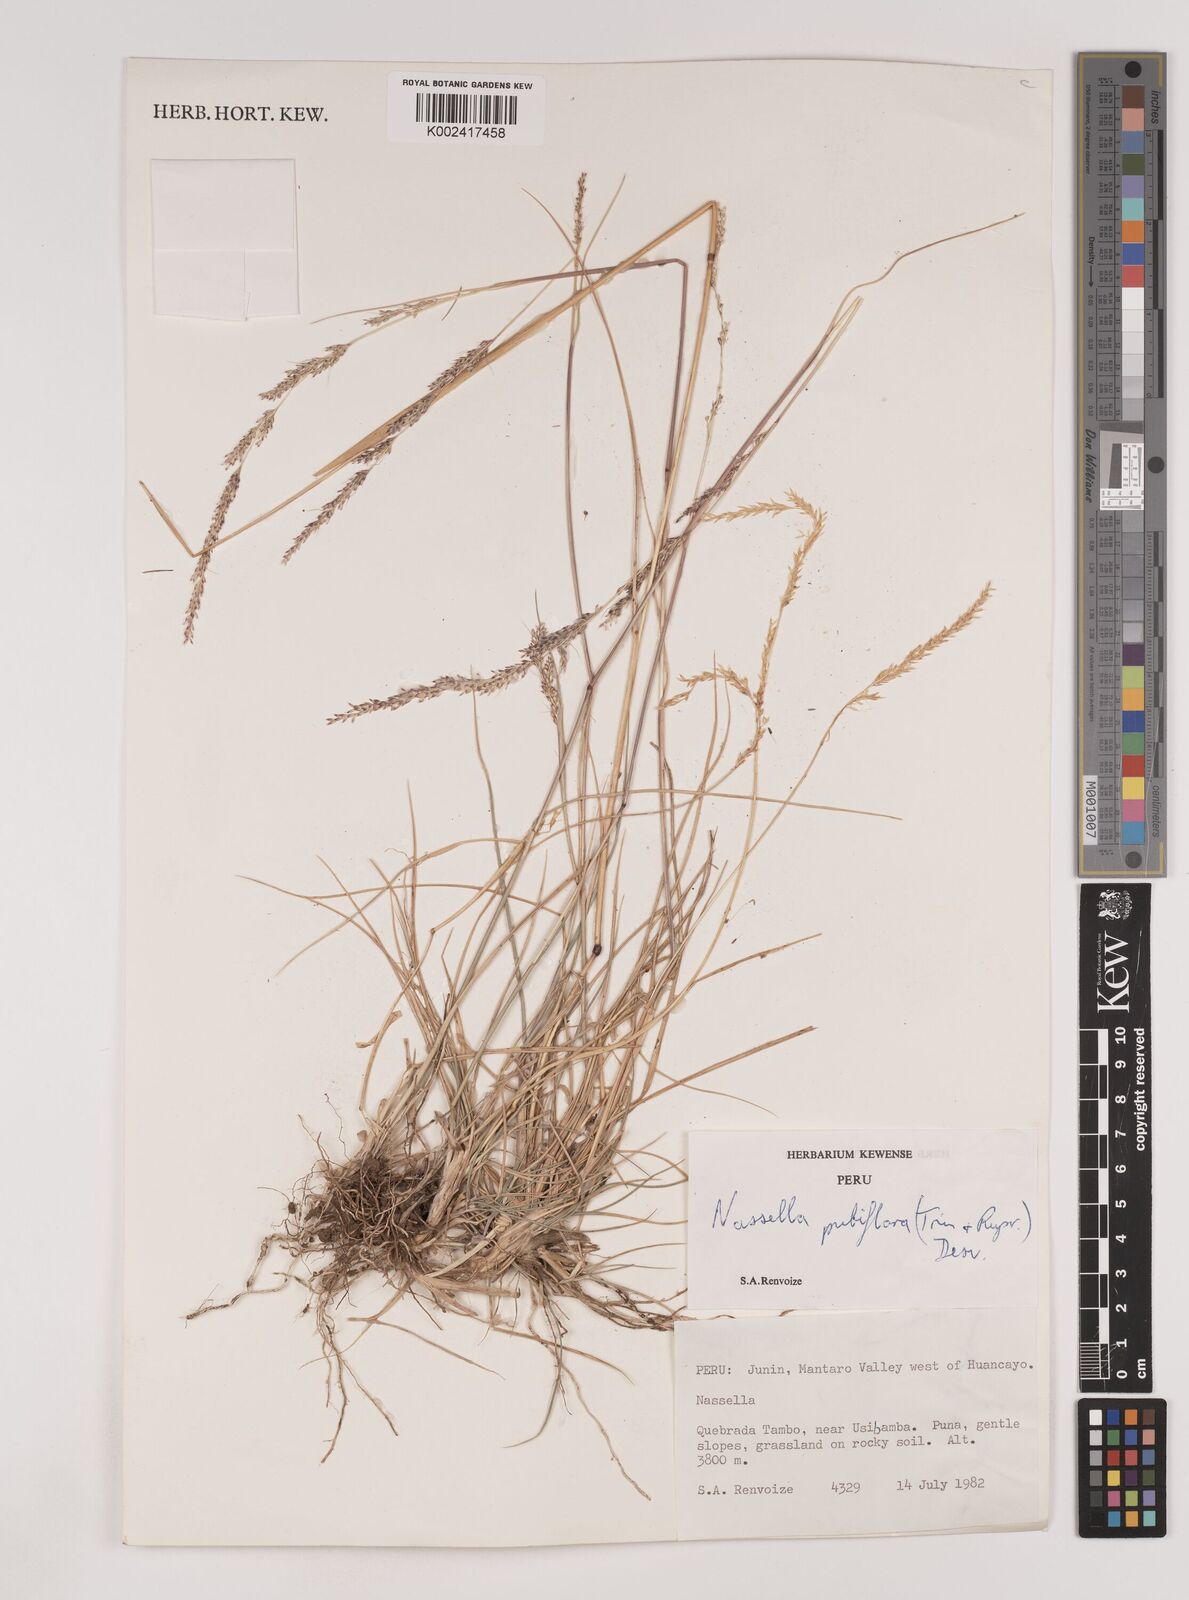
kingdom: Plantae
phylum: Tracheophyta
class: Liliopsida
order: Poales
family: Poaceae
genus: Nassella
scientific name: Nassella meyeniana
